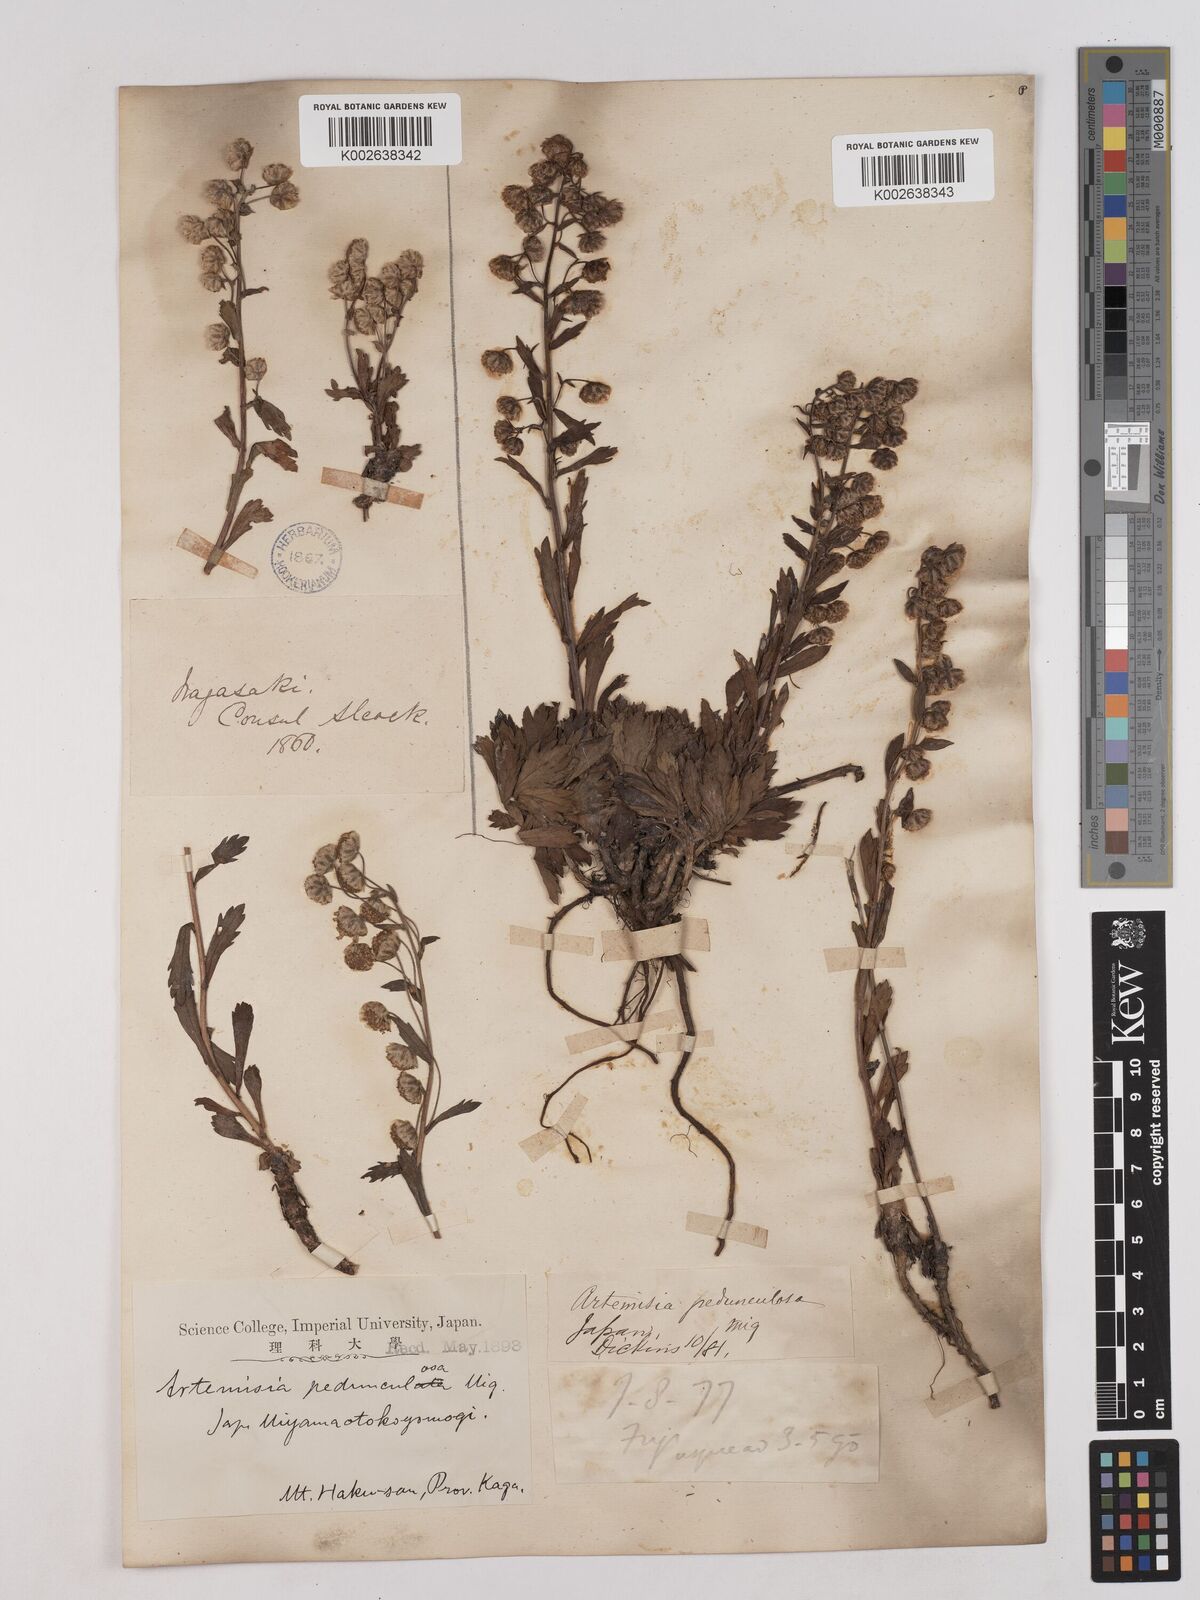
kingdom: Plantae
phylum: Tracheophyta
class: Magnoliopsida
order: Asterales
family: Asteraceae
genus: Artemisia
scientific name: Artemisia pedunculosa
